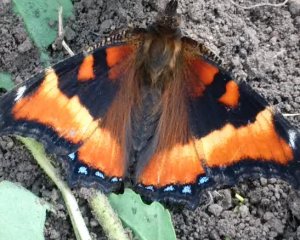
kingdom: Animalia
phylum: Arthropoda
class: Insecta
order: Lepidoptera
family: Nymphalidae
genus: Aglais
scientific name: Aglais milberti
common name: Milbert's Tortoiseshell
